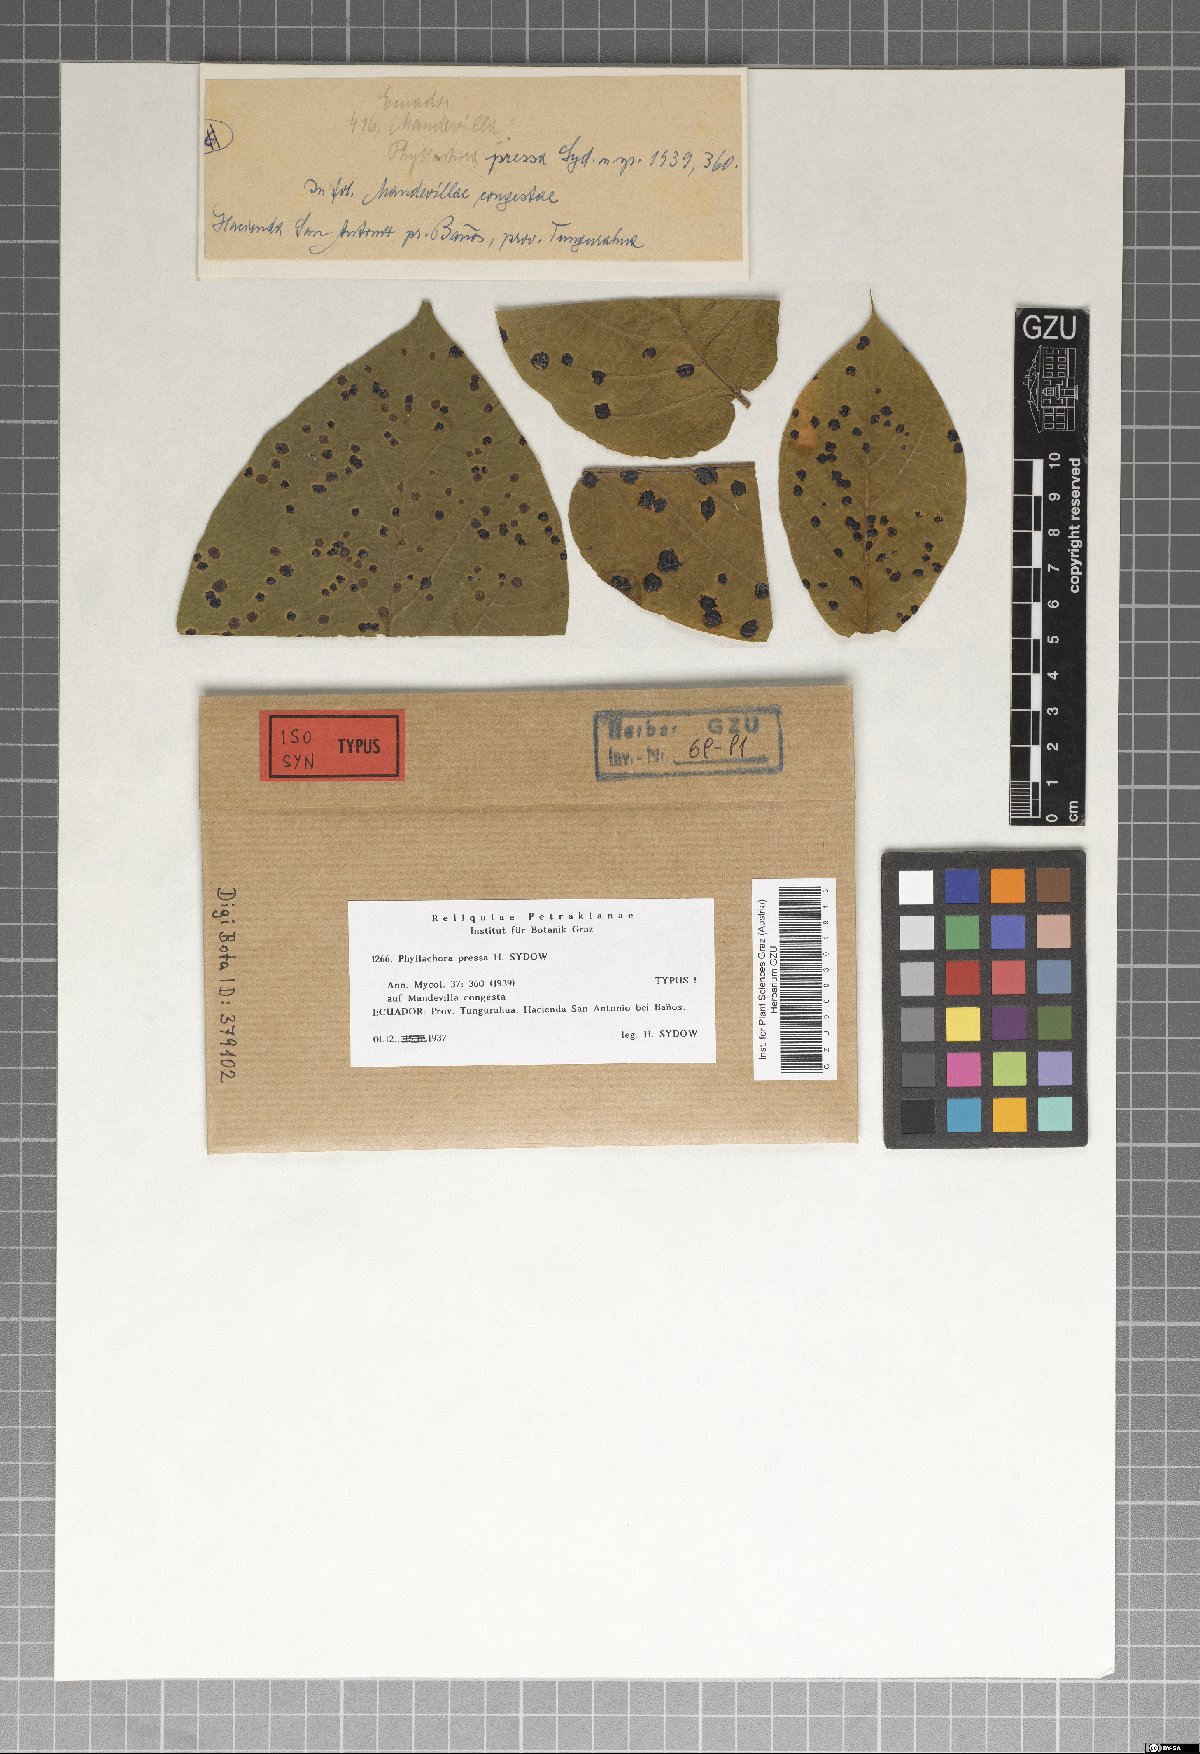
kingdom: Fungi
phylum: Ascomycota
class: Sordariomycetes
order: Phyllachorales
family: Phyllachoraceae
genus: Phyllachora
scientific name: Phyllachora pressa
